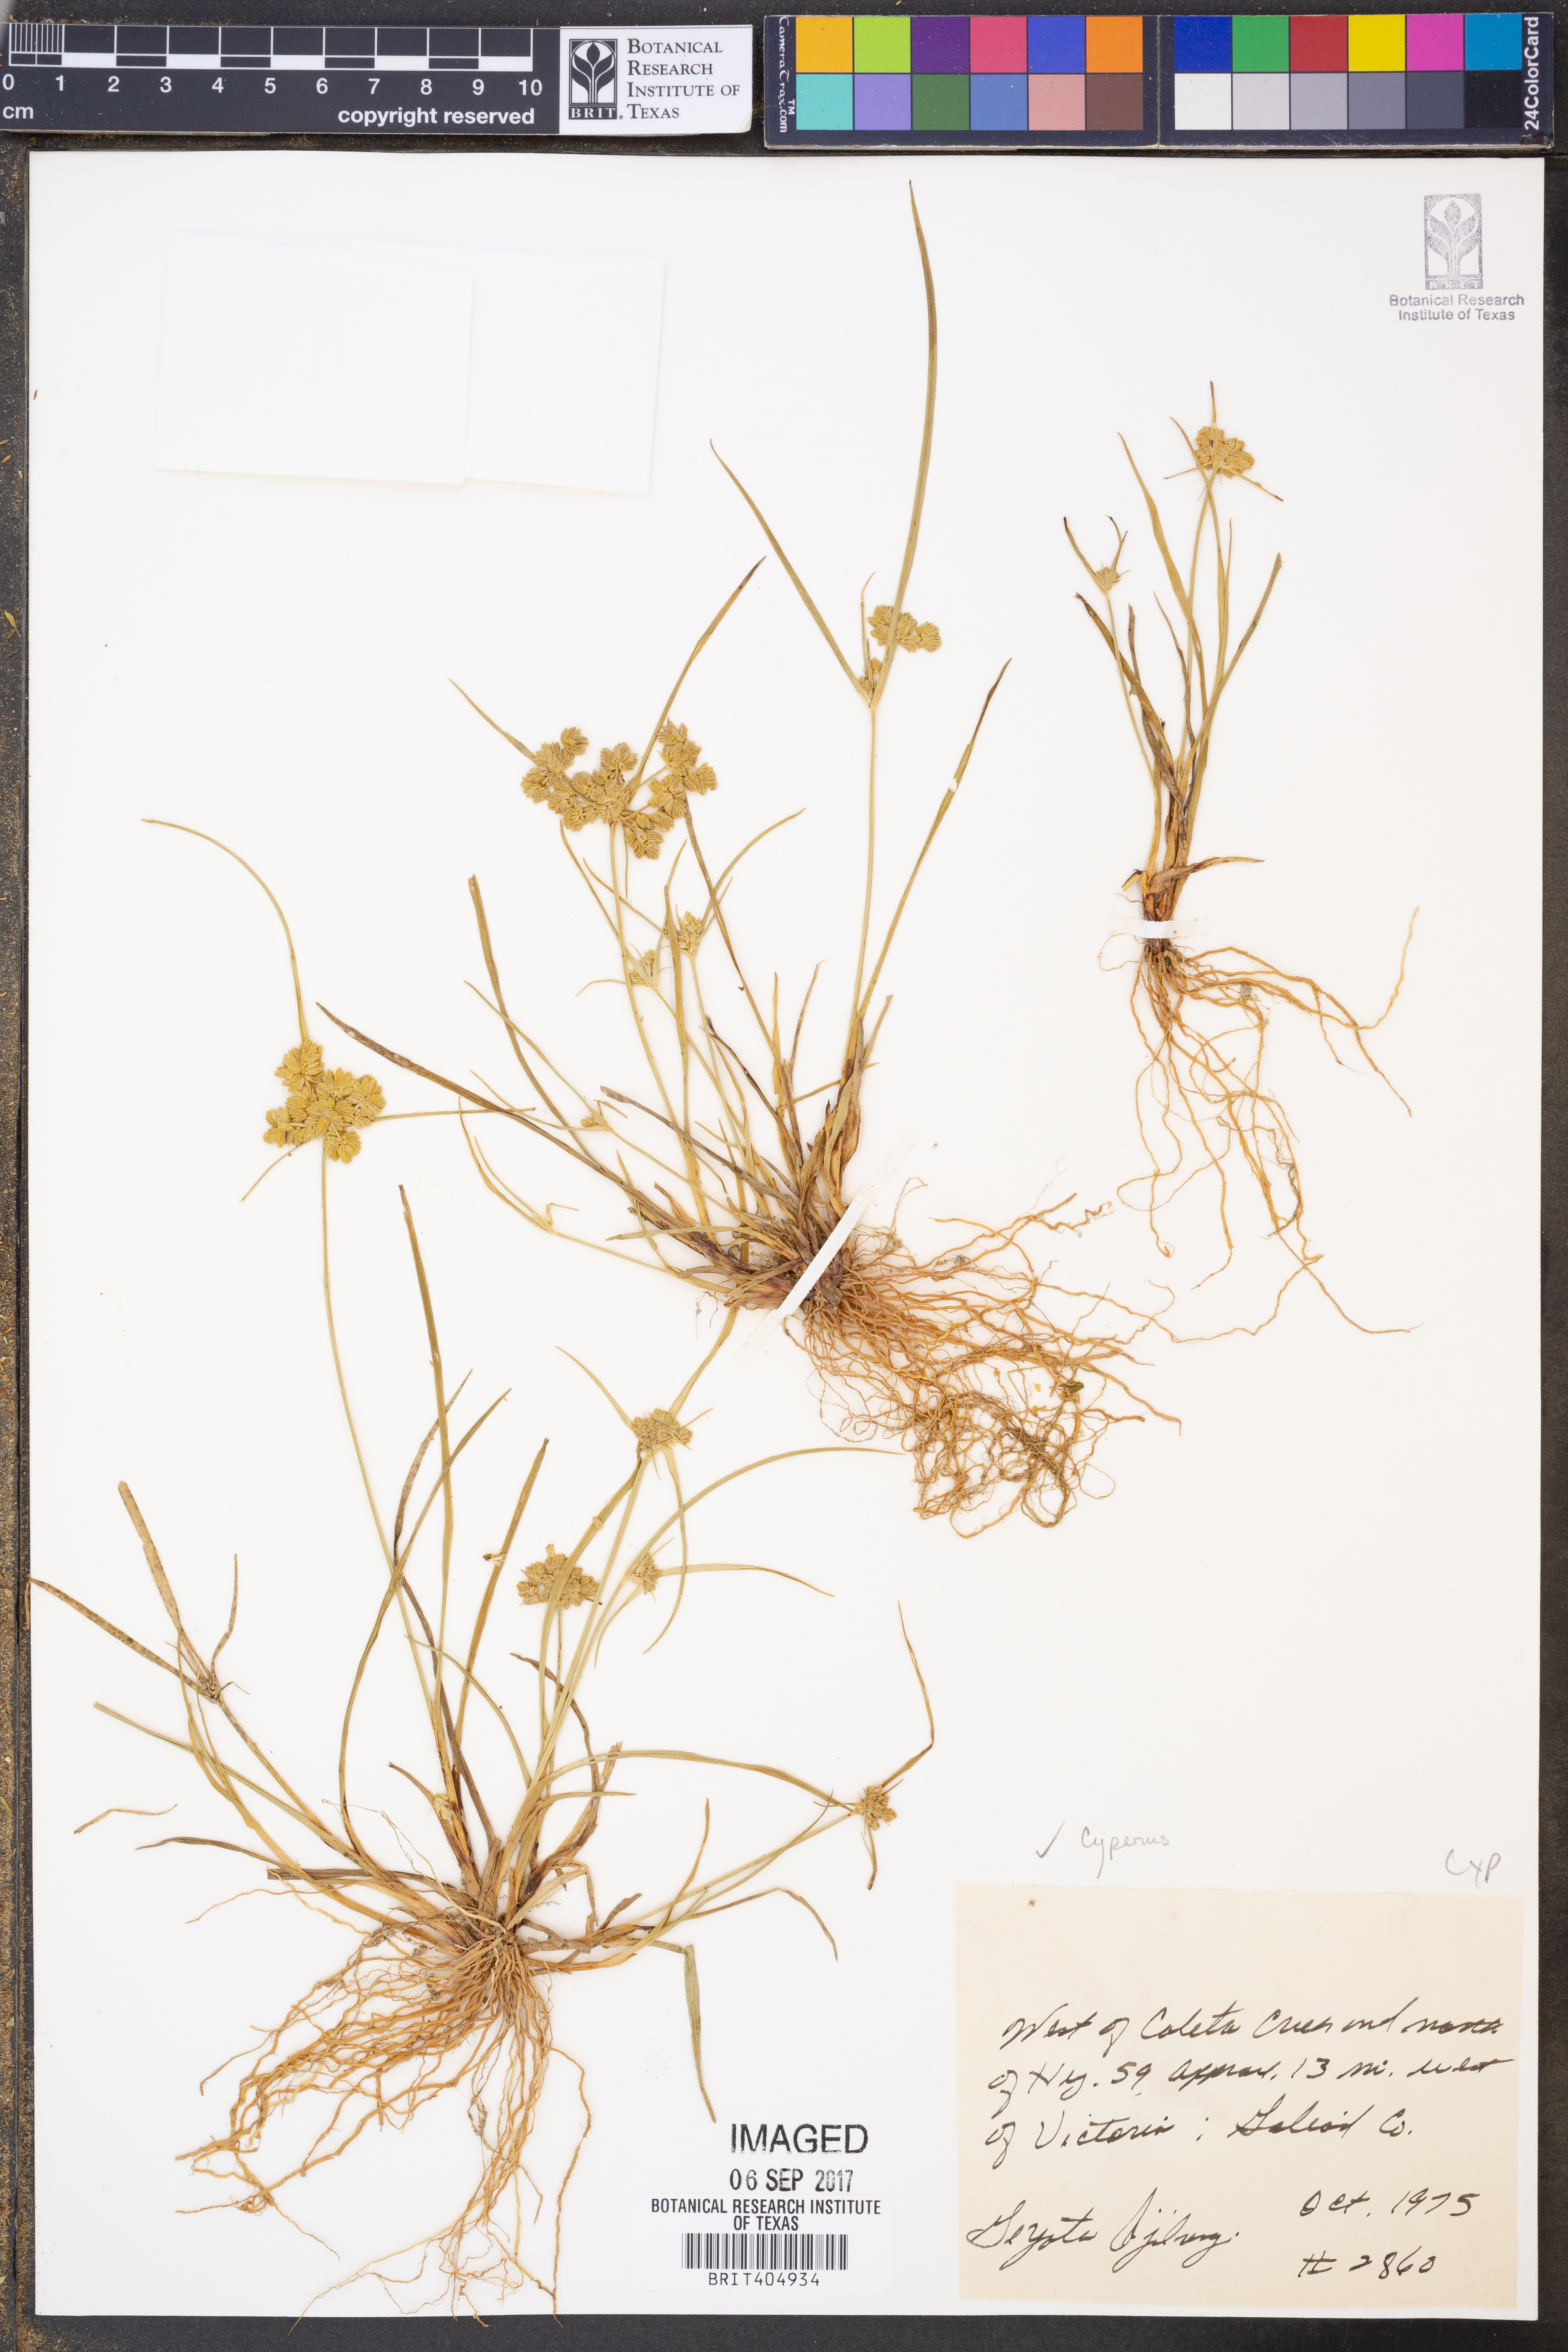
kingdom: Plantae
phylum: Tracheophyta
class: Liliopsida
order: Poales
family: Cyperaceae
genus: Cyperus
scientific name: Cyperus
